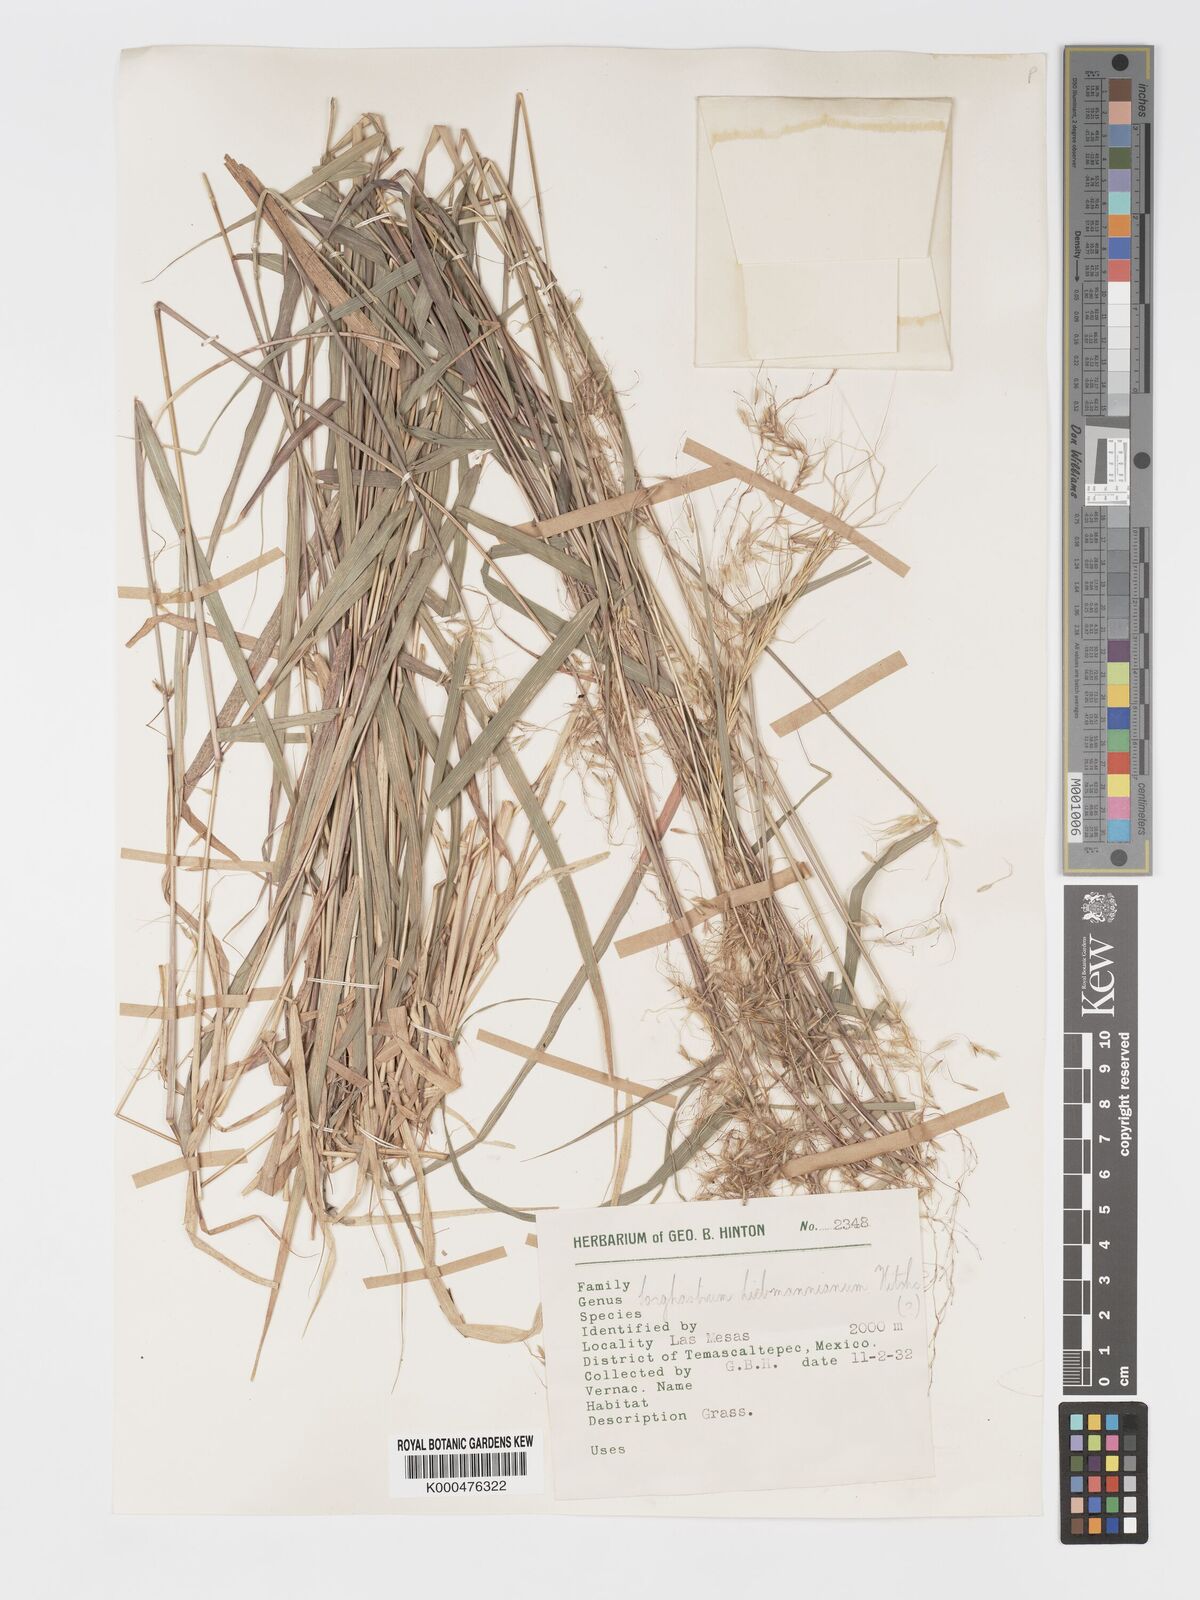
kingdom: Plantae
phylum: Tracheophyta
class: Liliopsida
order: Poales
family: Poaceae
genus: Sorghastrum
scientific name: Sorghastrum incompletum
